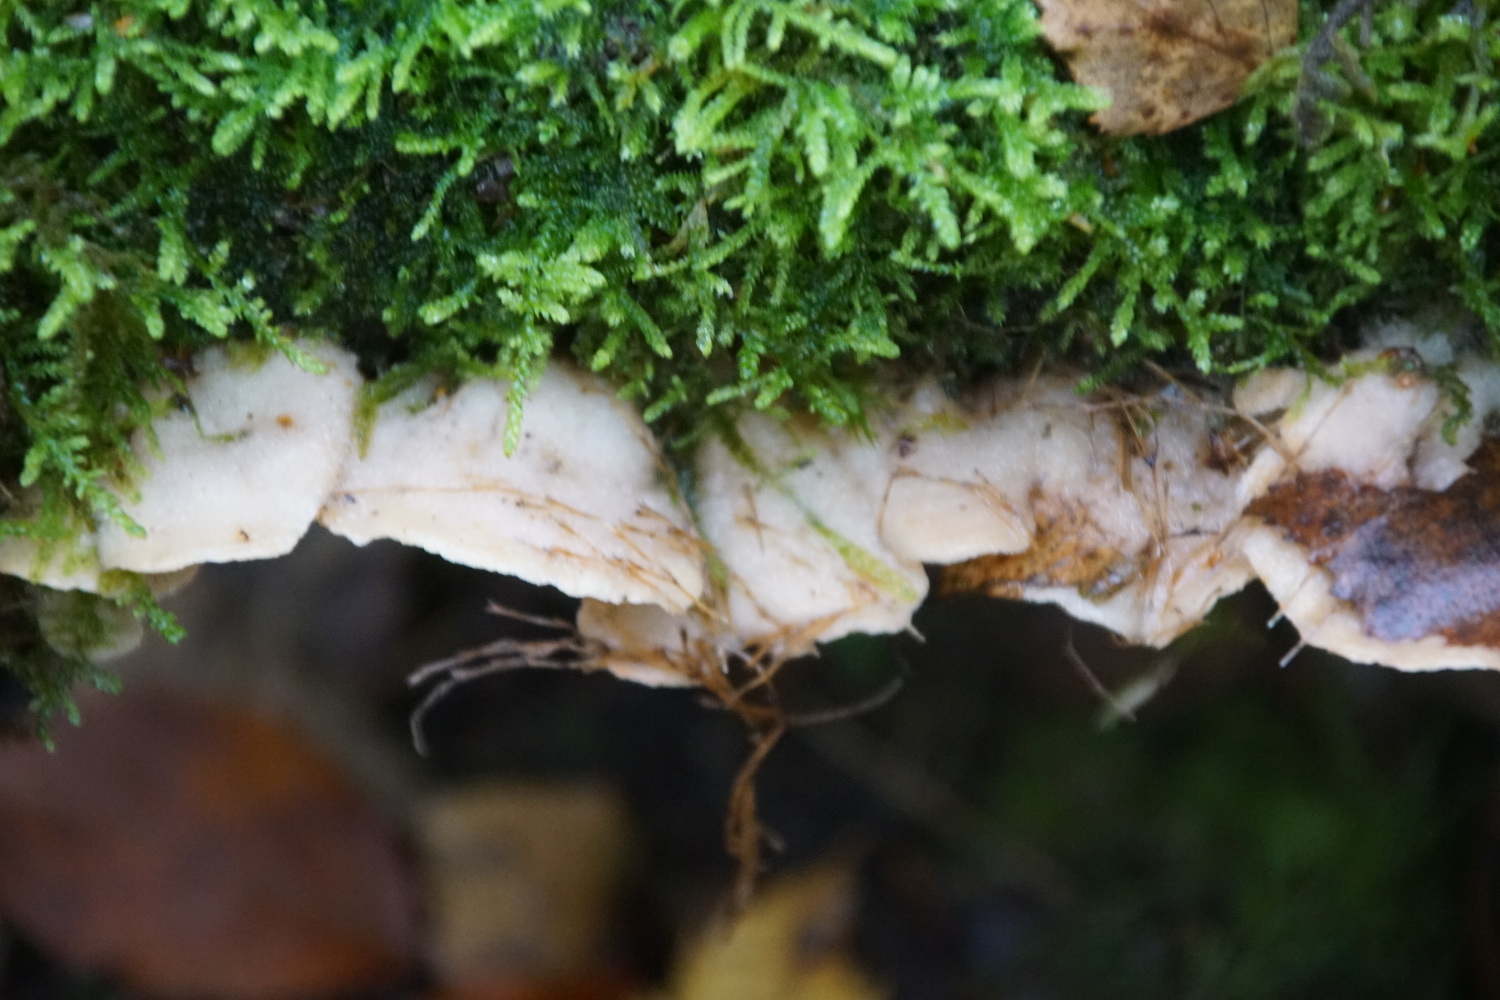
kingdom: Fungi
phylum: Basidiomycota
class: Agaricomycetes
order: Polyporales
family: Meruliaceae
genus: Phlebia
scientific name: Phlebia tremellosa
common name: bævrende åresvamp
